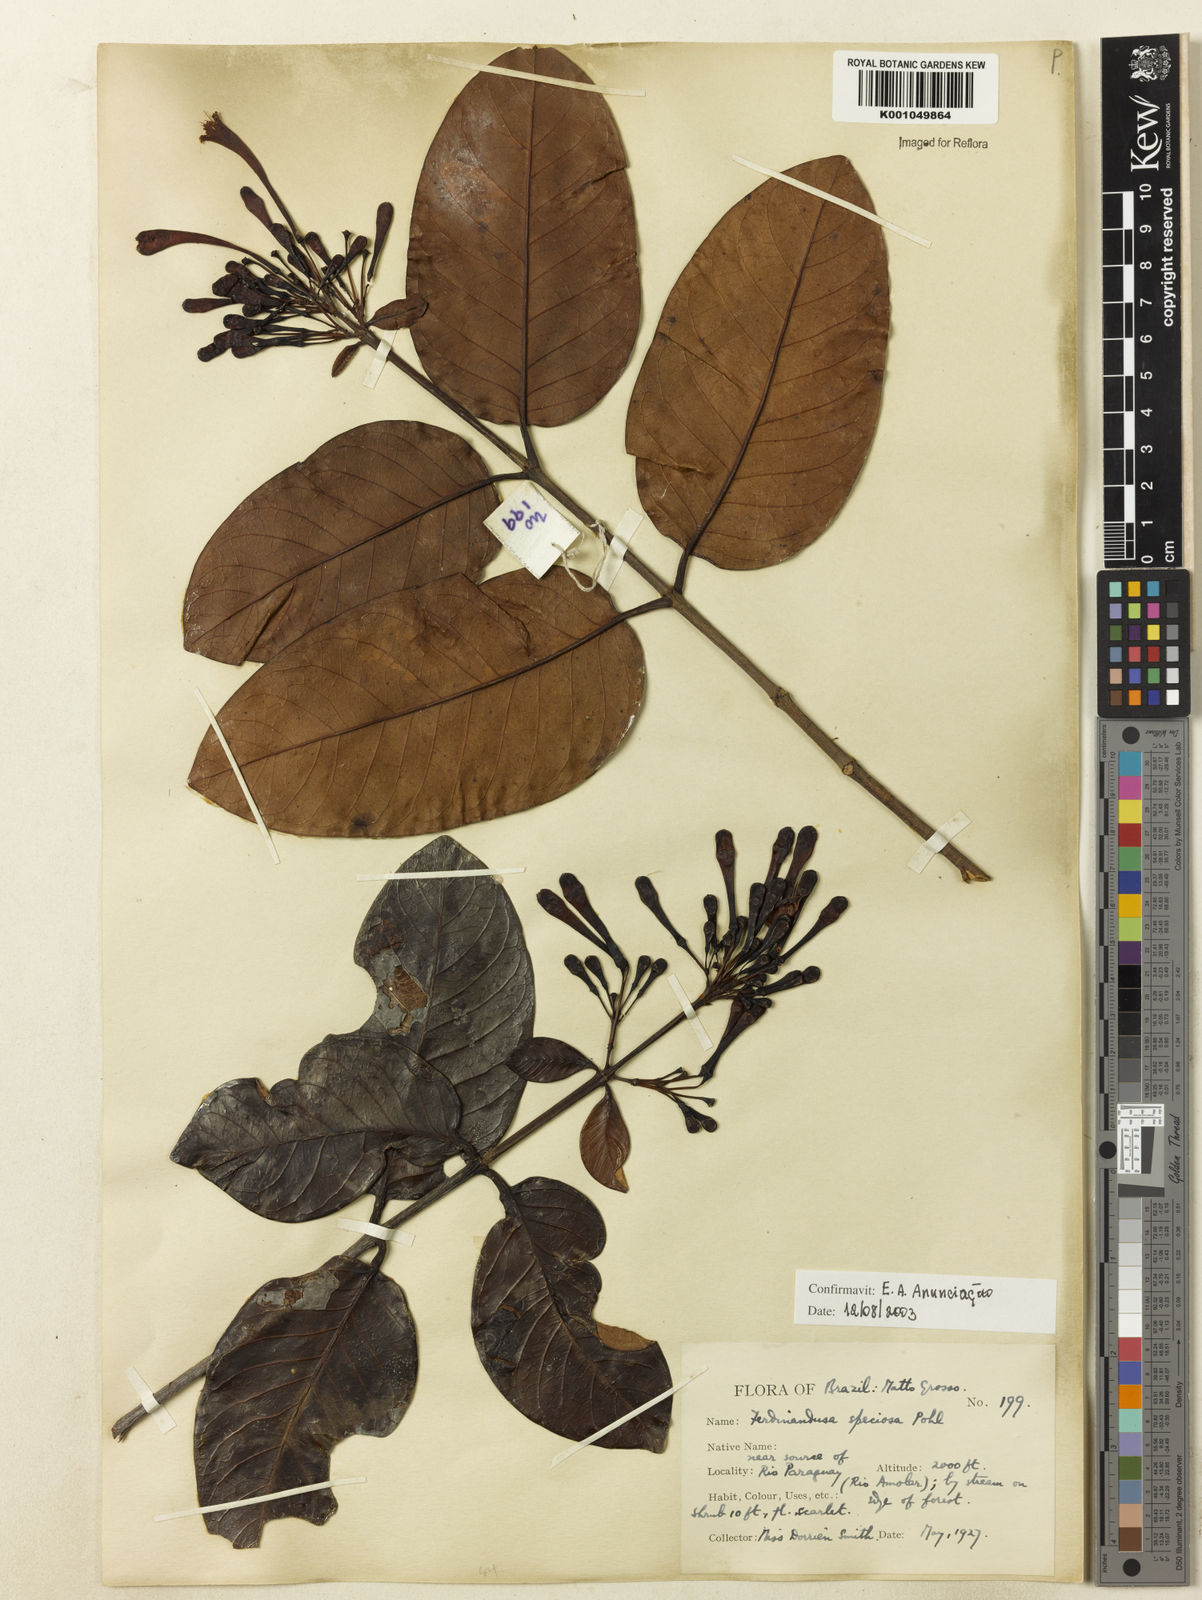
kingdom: Plantae
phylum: Tracheophyta
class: Magnoliopsida
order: Gentianales
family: Rubiaceae
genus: Ferdinandusa
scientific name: Ferdinandusa speciosa
